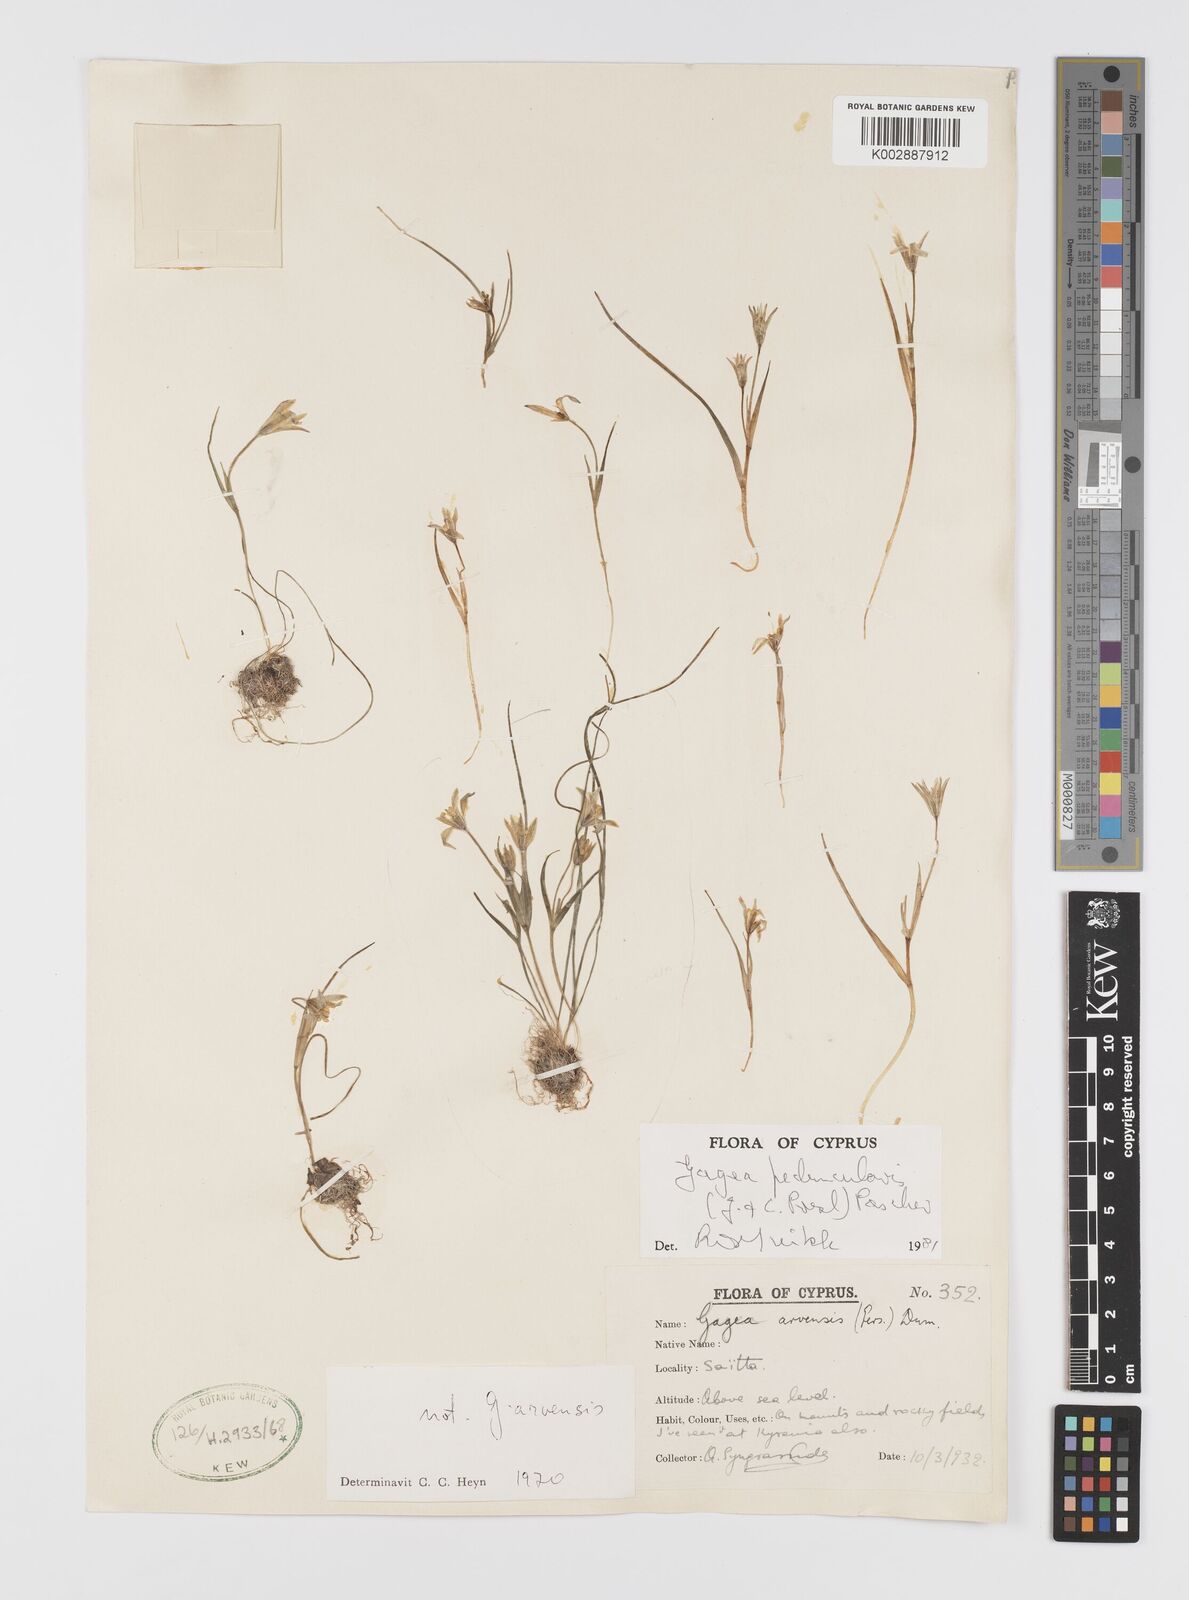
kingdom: Plantae
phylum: Tracheophyta
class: Liliopsida
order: Liliales
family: Liliaceae
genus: Gagea
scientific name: Gagea peduncularis
